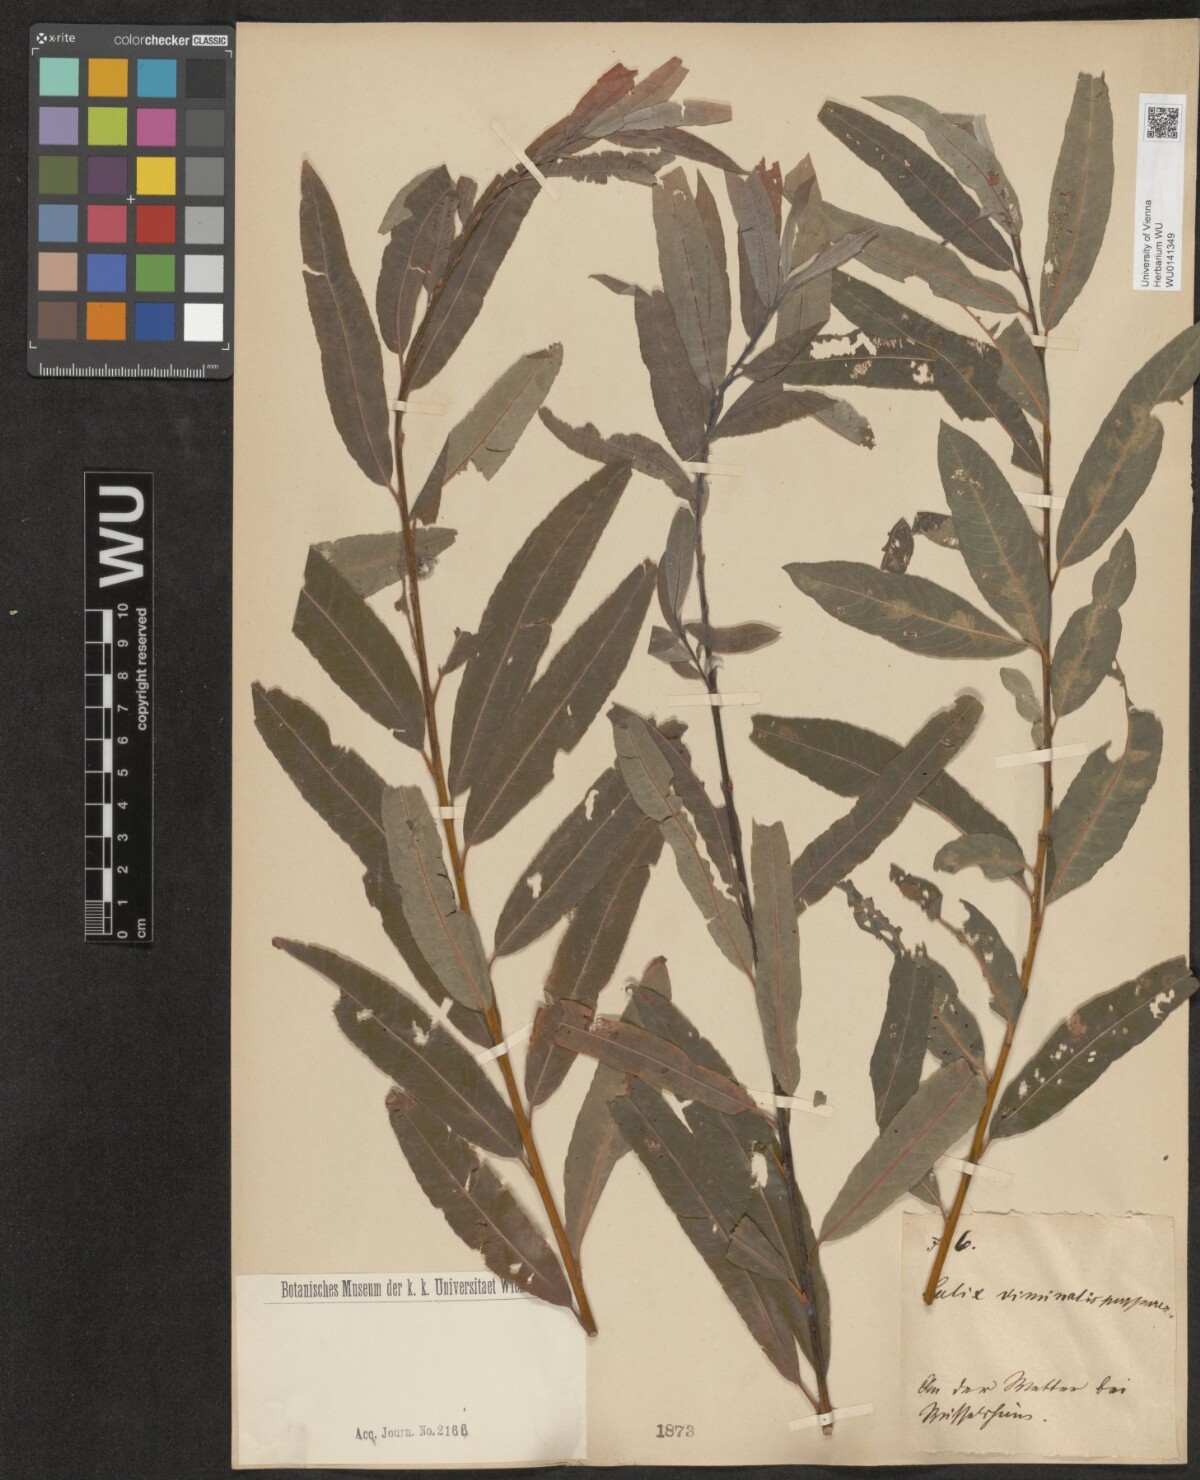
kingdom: Plantae
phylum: Tracheophyta
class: Magnoliopsida
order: Malpighiales
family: Salicaceae
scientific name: Salicaceae
